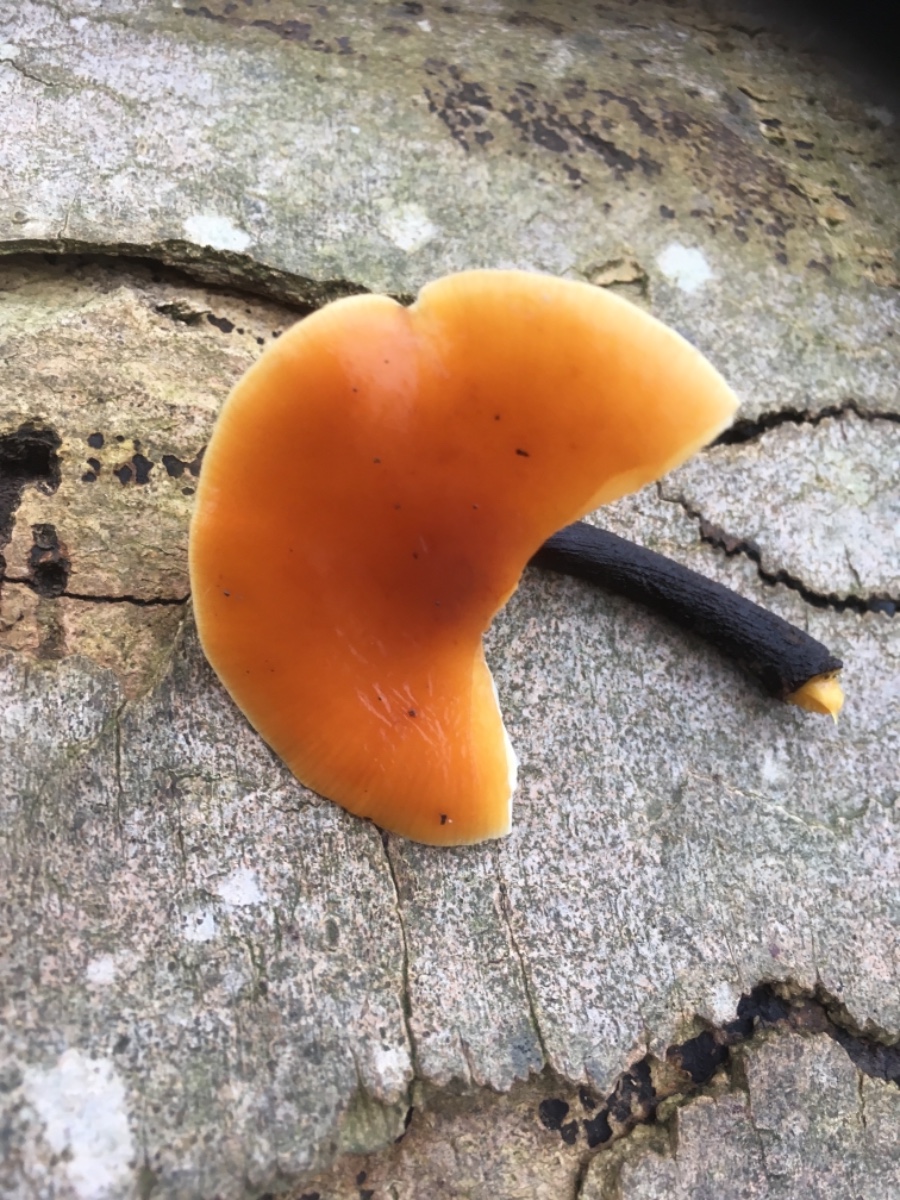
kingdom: Fungi
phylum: Basidiomycota
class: Agaricomycetes
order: Agaricales
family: Physalacriaceae
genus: Flammulina
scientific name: Flammulina velutipes
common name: gul fløjlsfod
